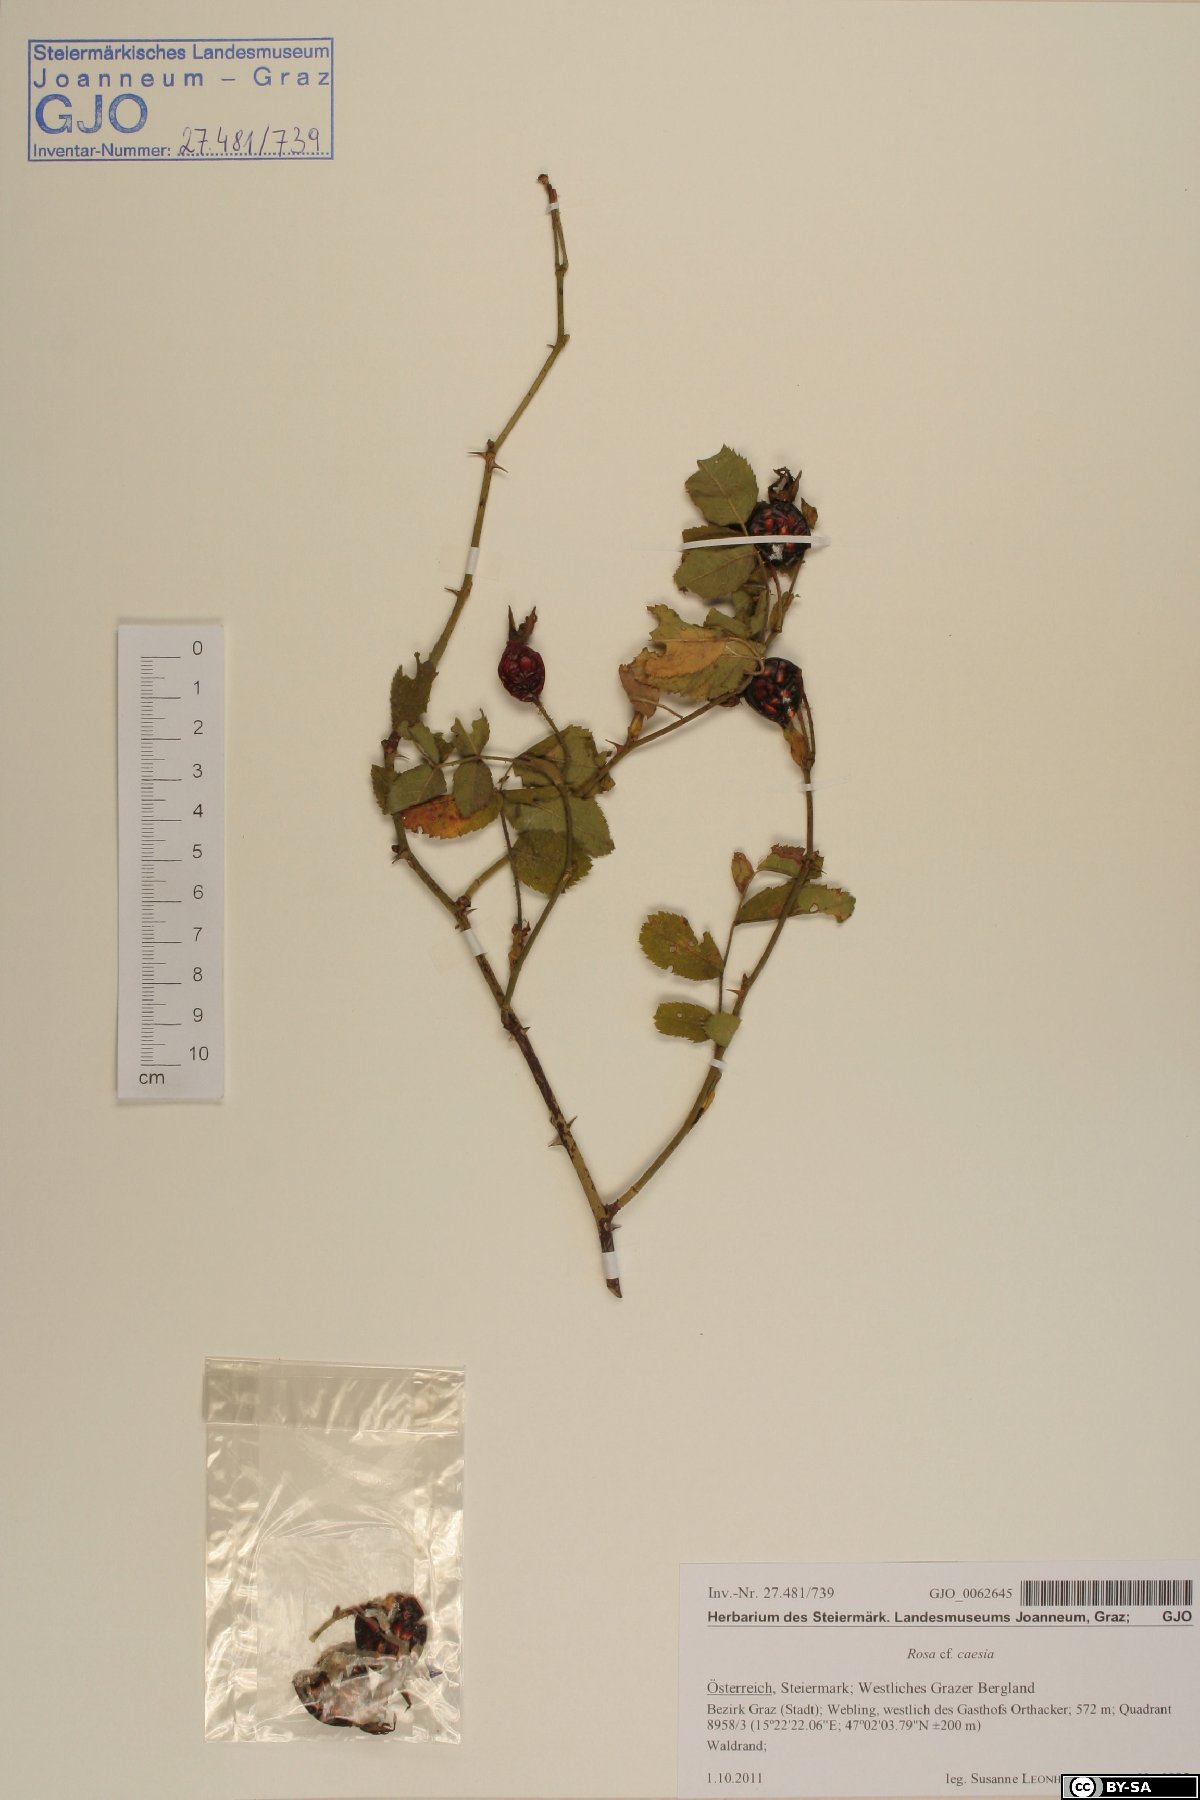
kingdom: Plantae
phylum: Tracheophyta
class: Magnoliopsida
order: Rosales
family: Rosaceae
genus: Rosa
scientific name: Rosa caesia
